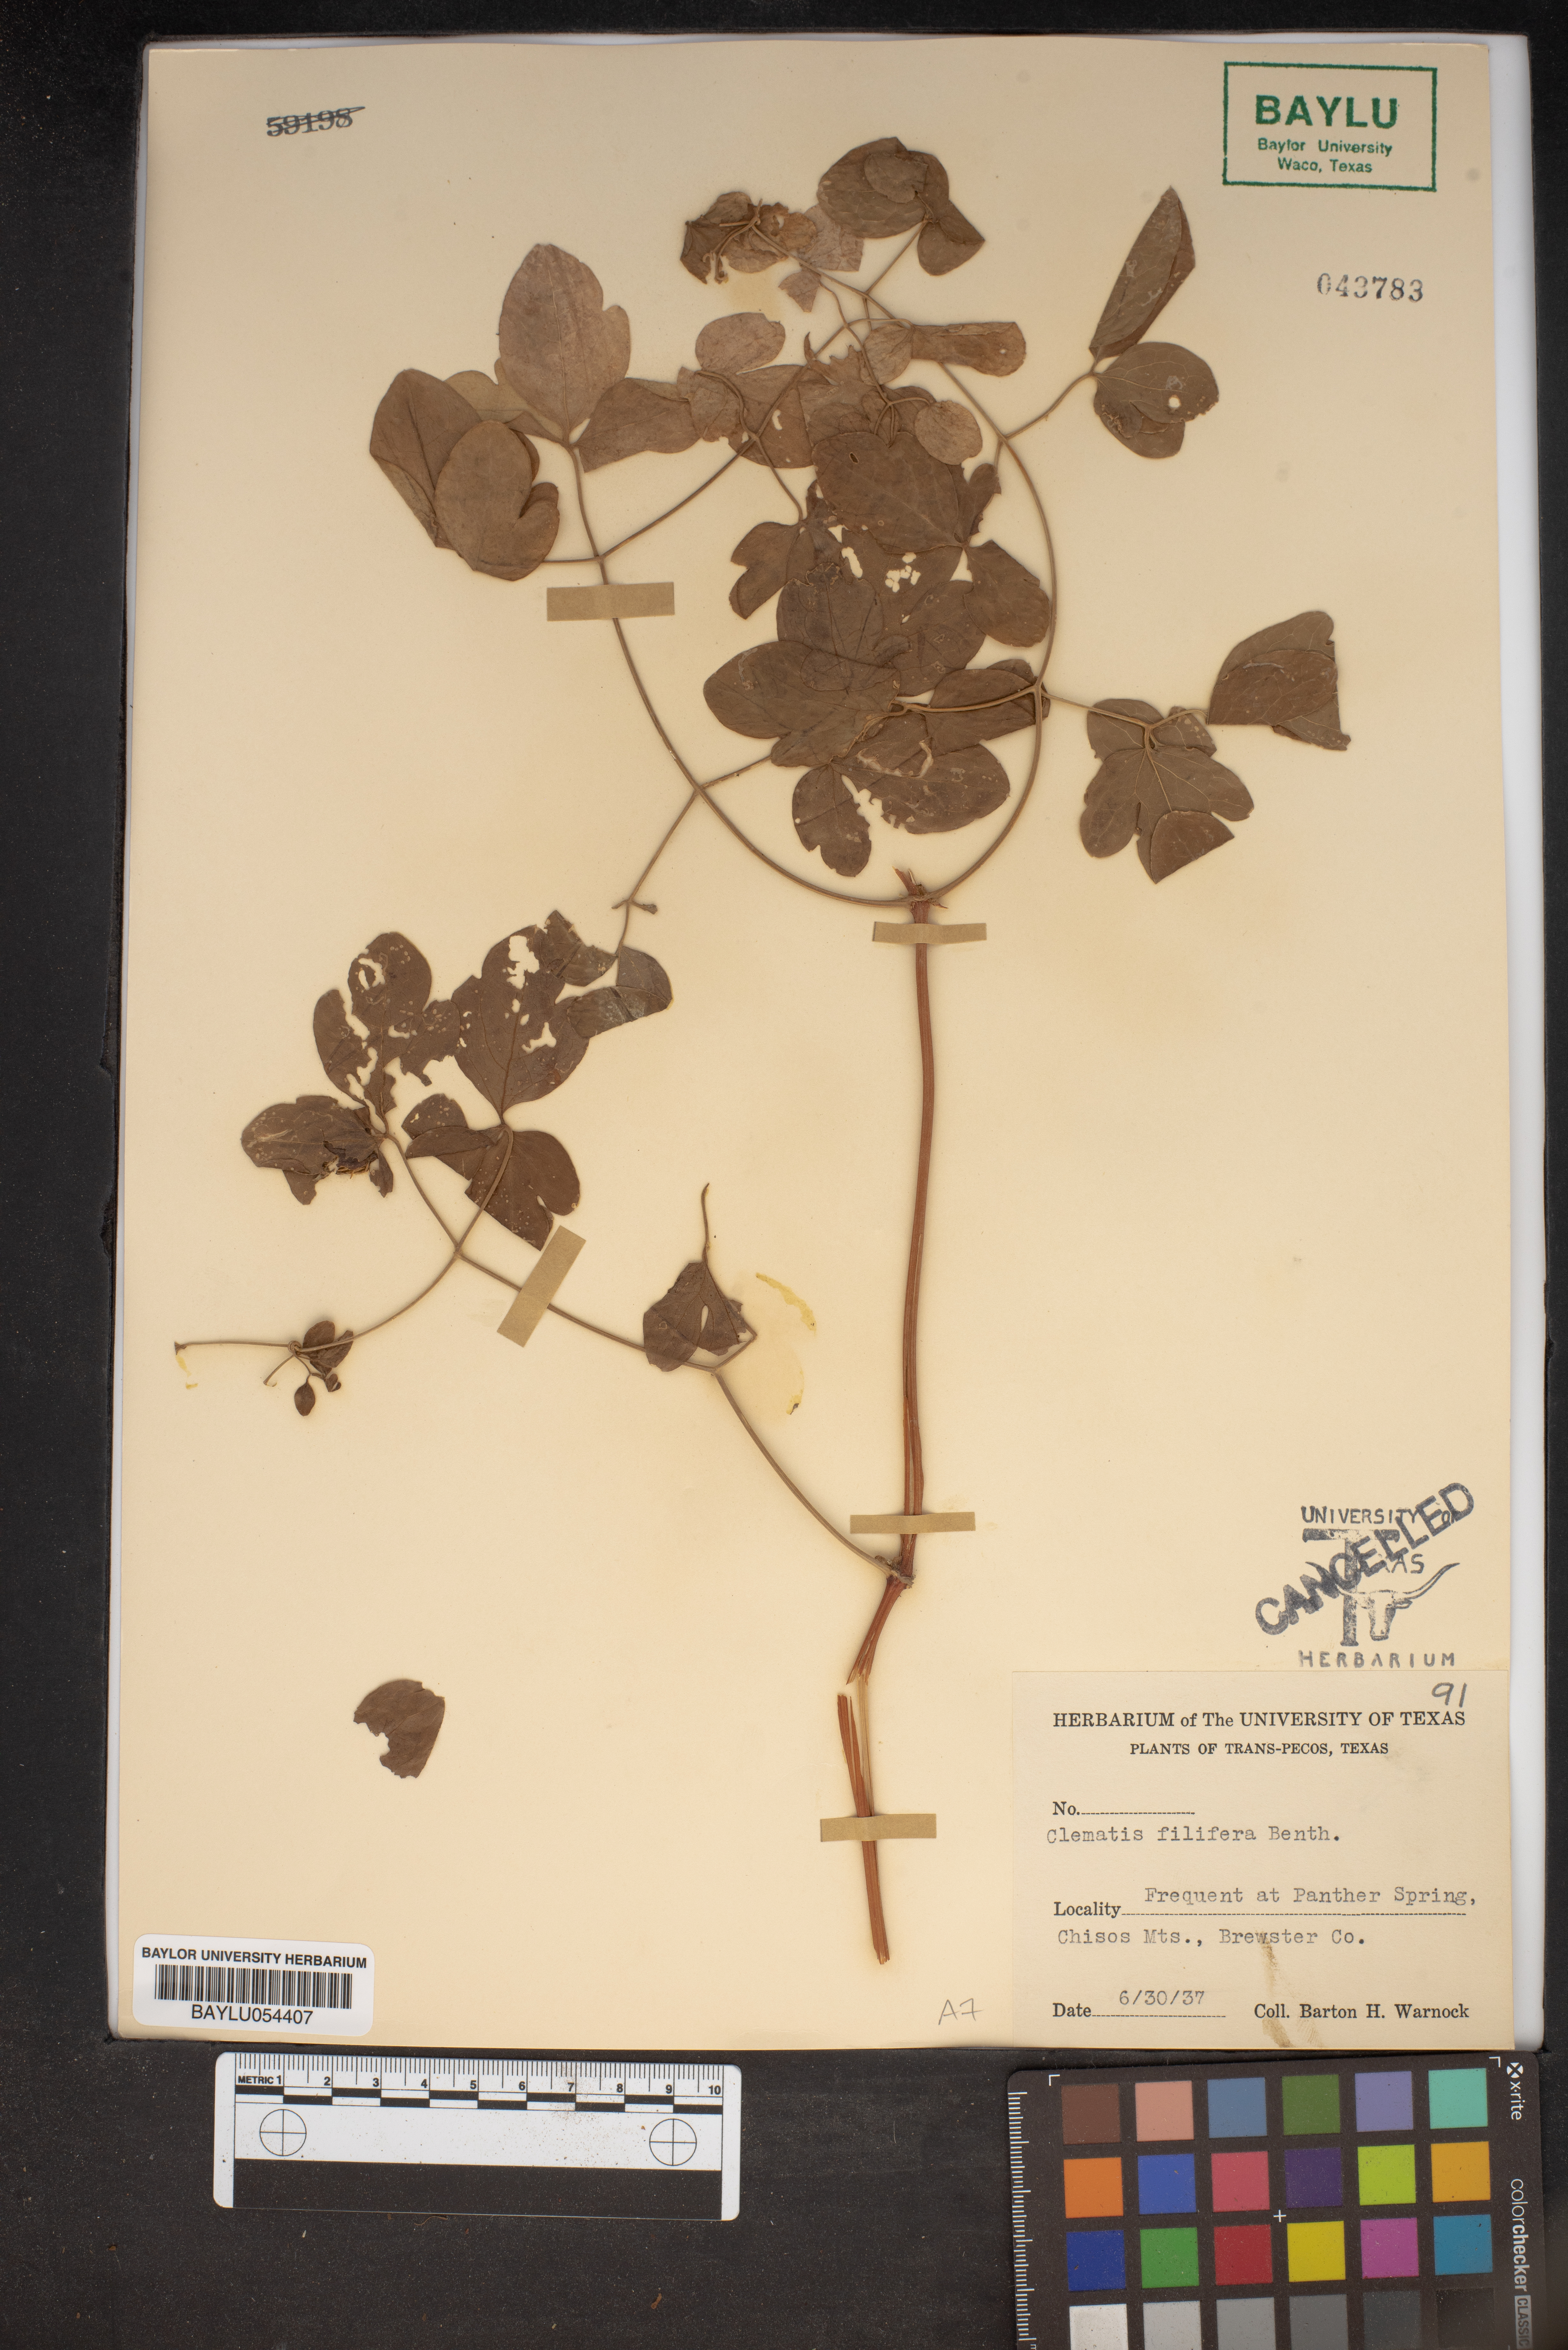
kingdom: Plantae
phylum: Tracheophyta
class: Magnoliopsida
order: Ranunculales
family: Ranunculaceae
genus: Clematis
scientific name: Clematis pitcheri
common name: Bellflower clematis
